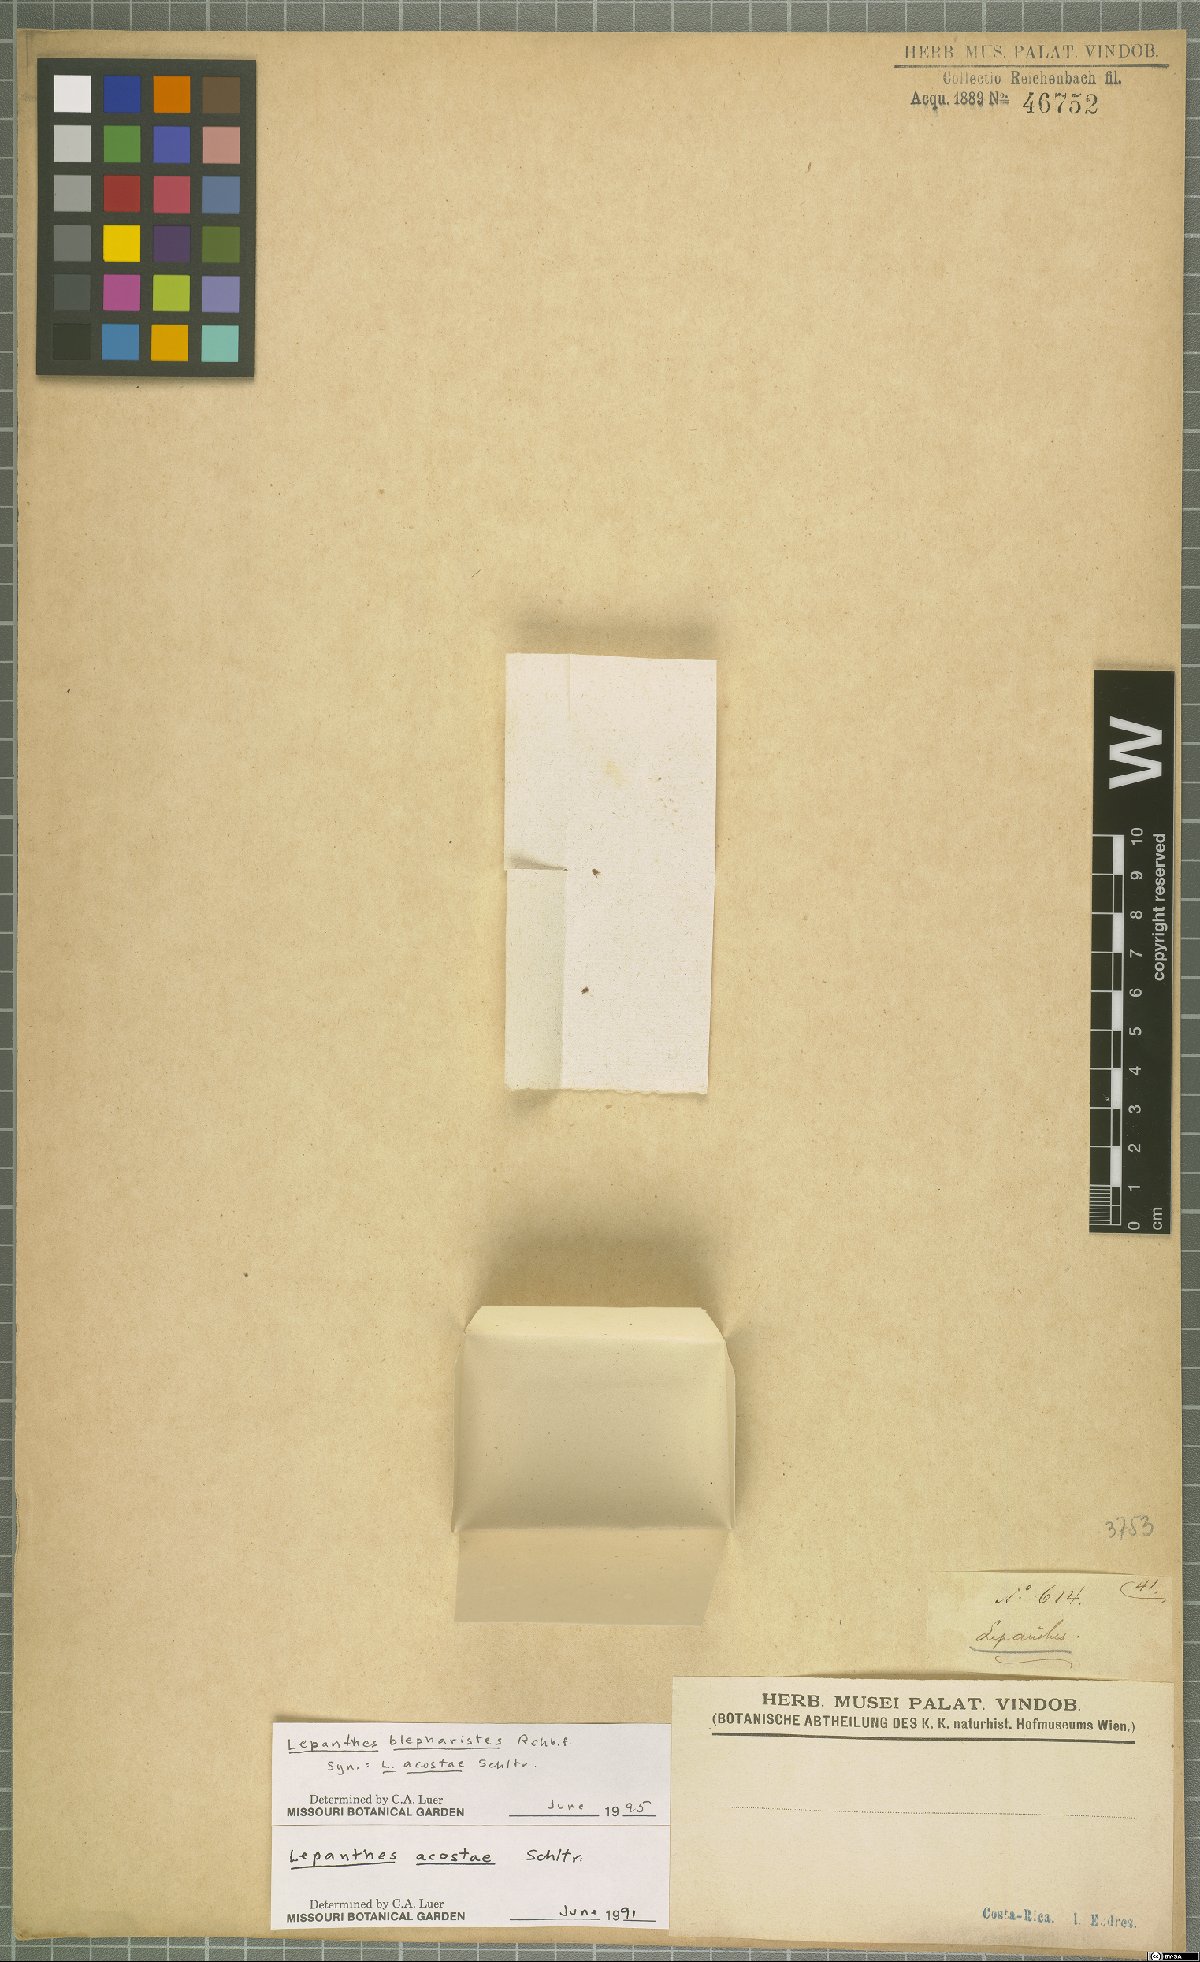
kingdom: Plantae
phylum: Tracheophyta
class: Liliopsida
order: Asparagales
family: Orchidaceae
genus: Lepanthes
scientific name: Lepanthes blepharistes
